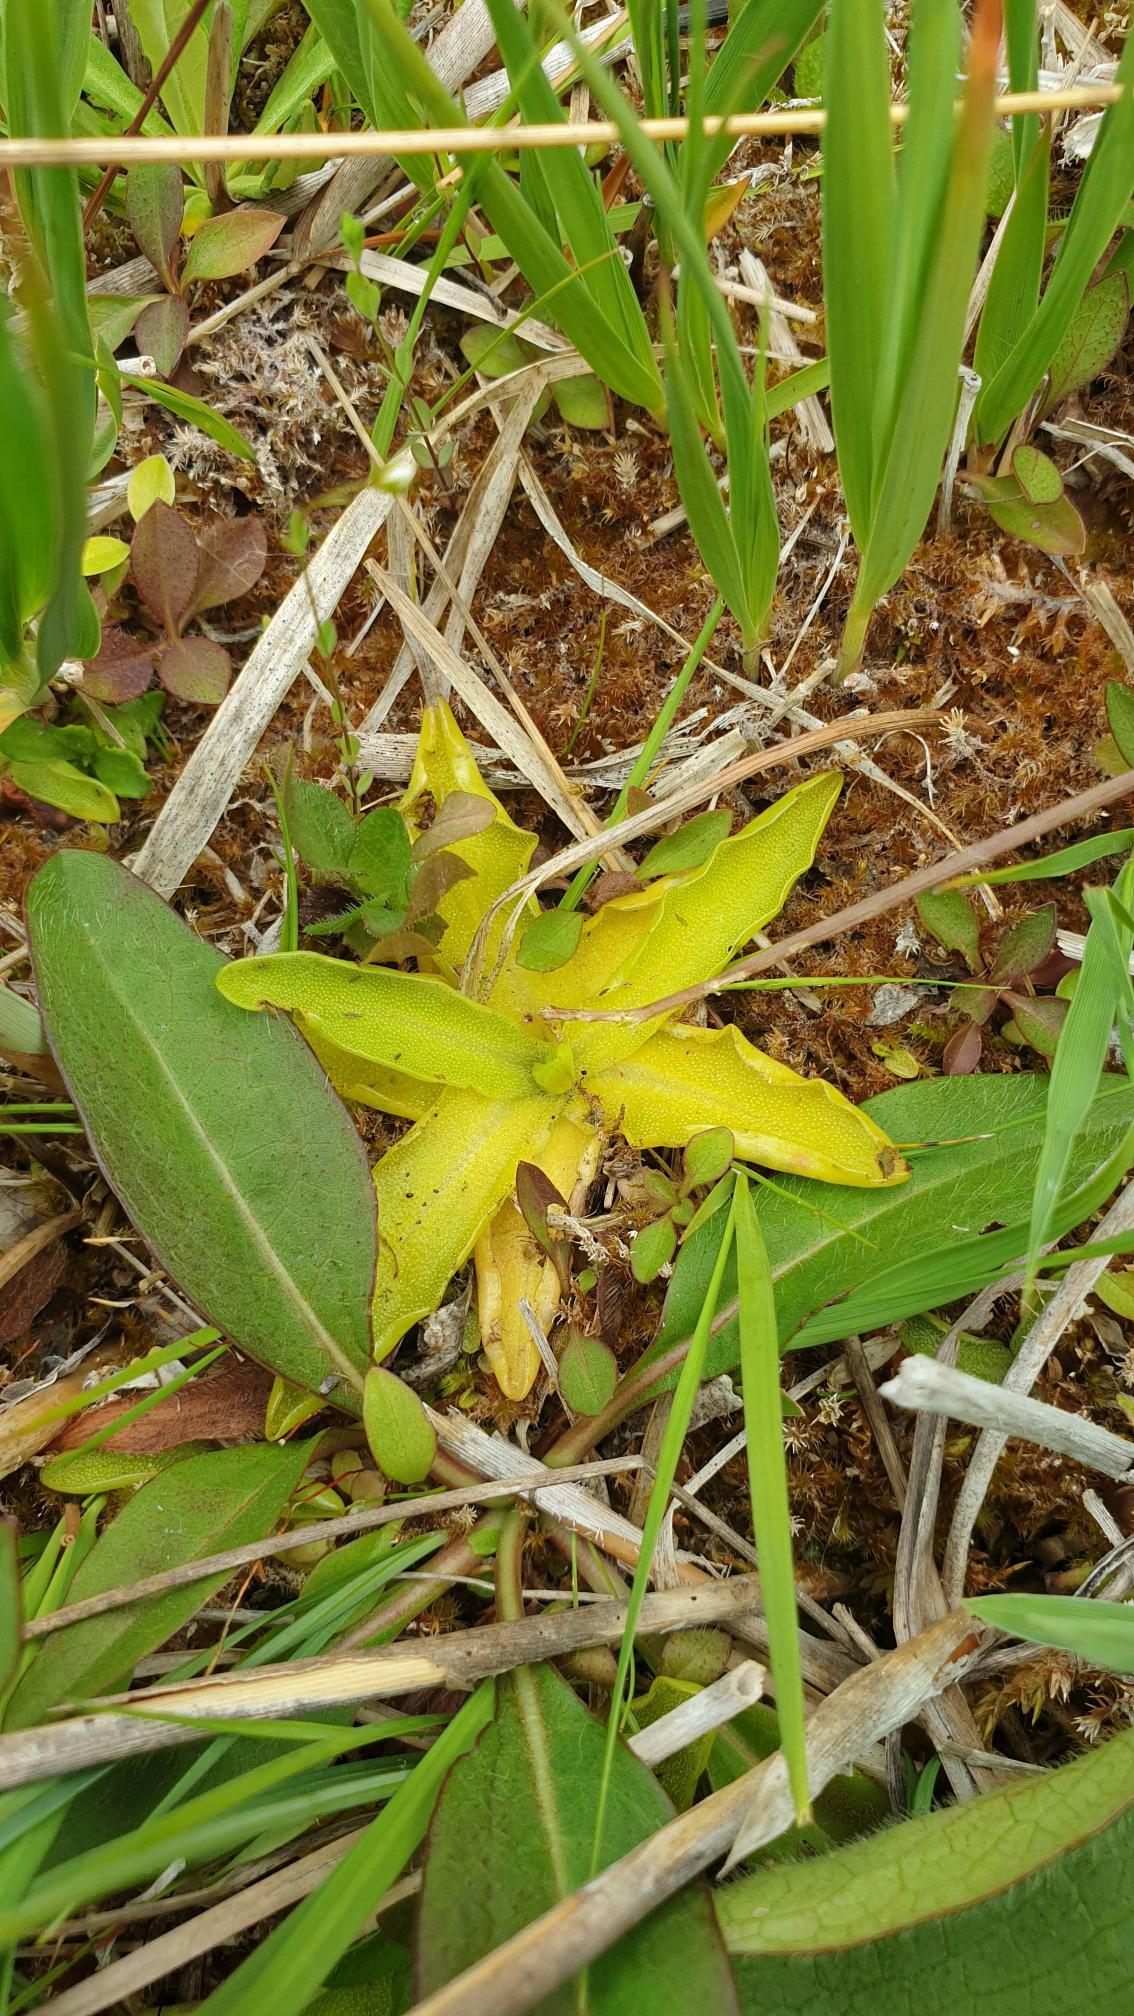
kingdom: Plantae
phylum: Tracheophyta
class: Magnoliopsida
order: Lamiales
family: Lentibulariaceae
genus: Pinguicula
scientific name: Pinguicula vulgaris
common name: Vibefedt
